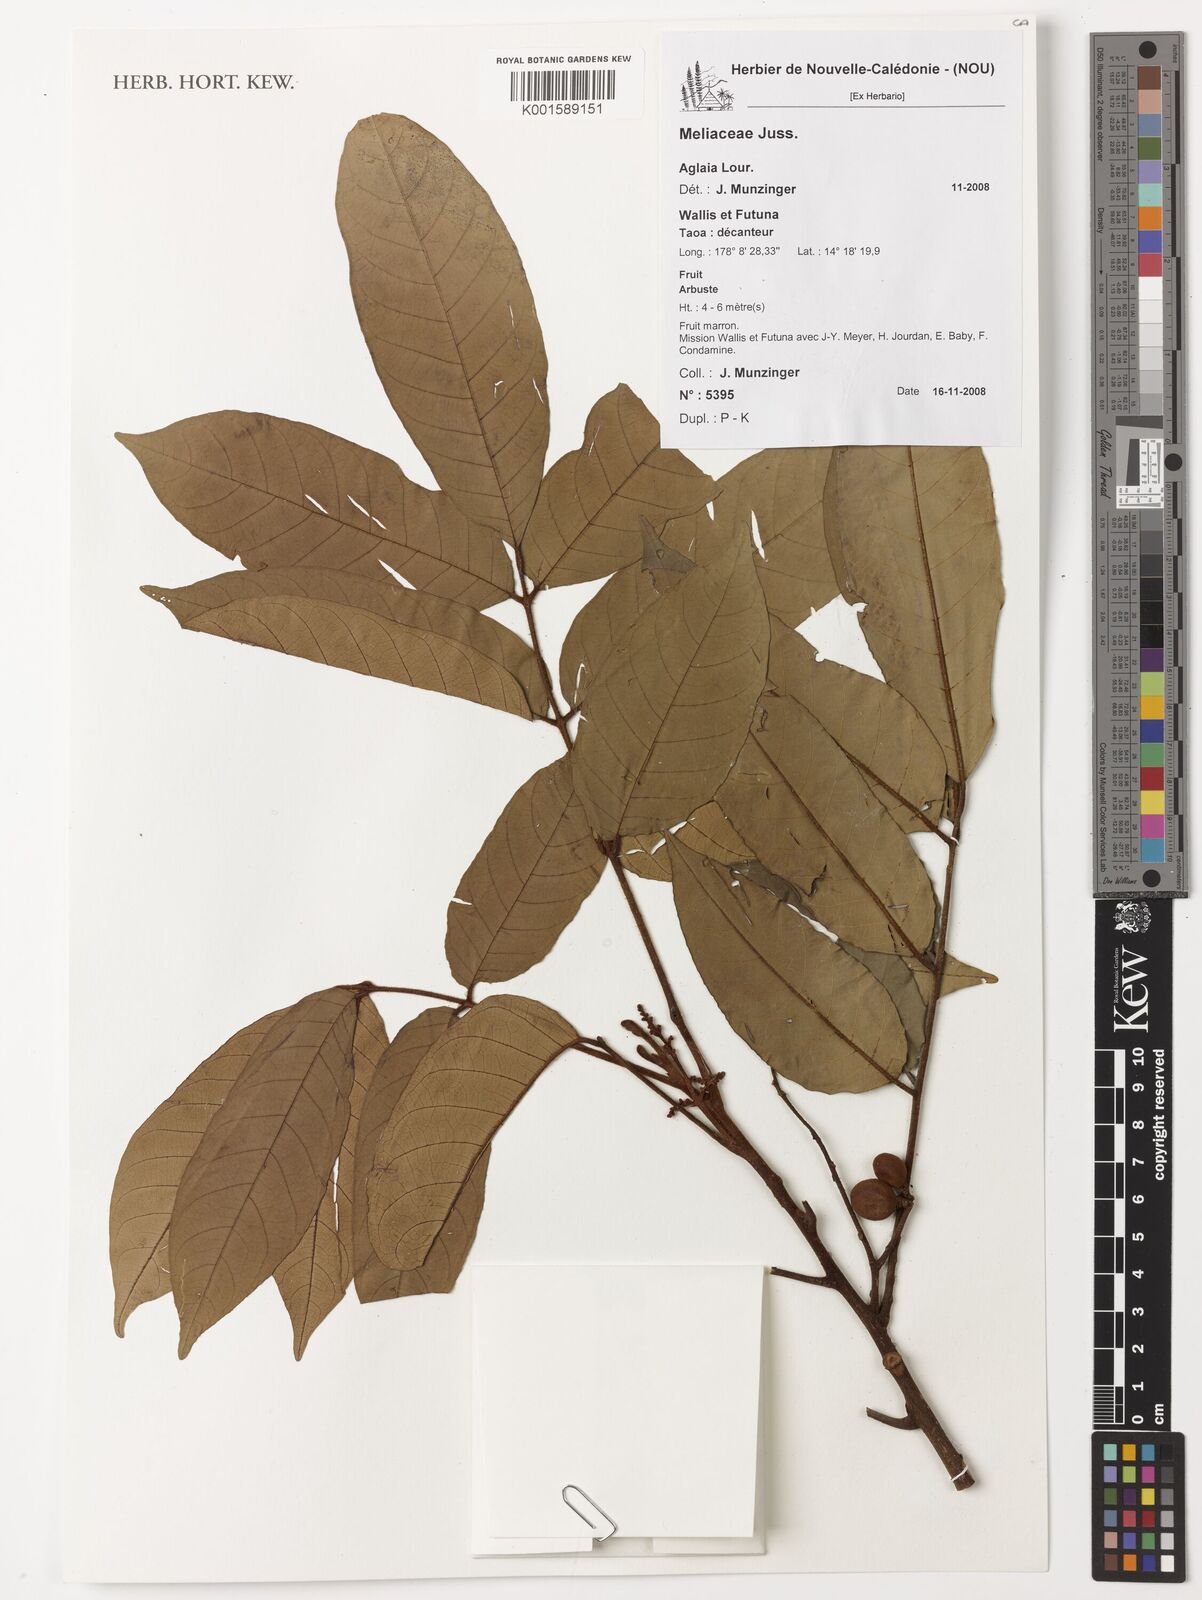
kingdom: Plantae
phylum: Tracheophyta
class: Magnoliopsida
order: Sapindales
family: Meliaceae
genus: Aglaia
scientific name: Aglaia
